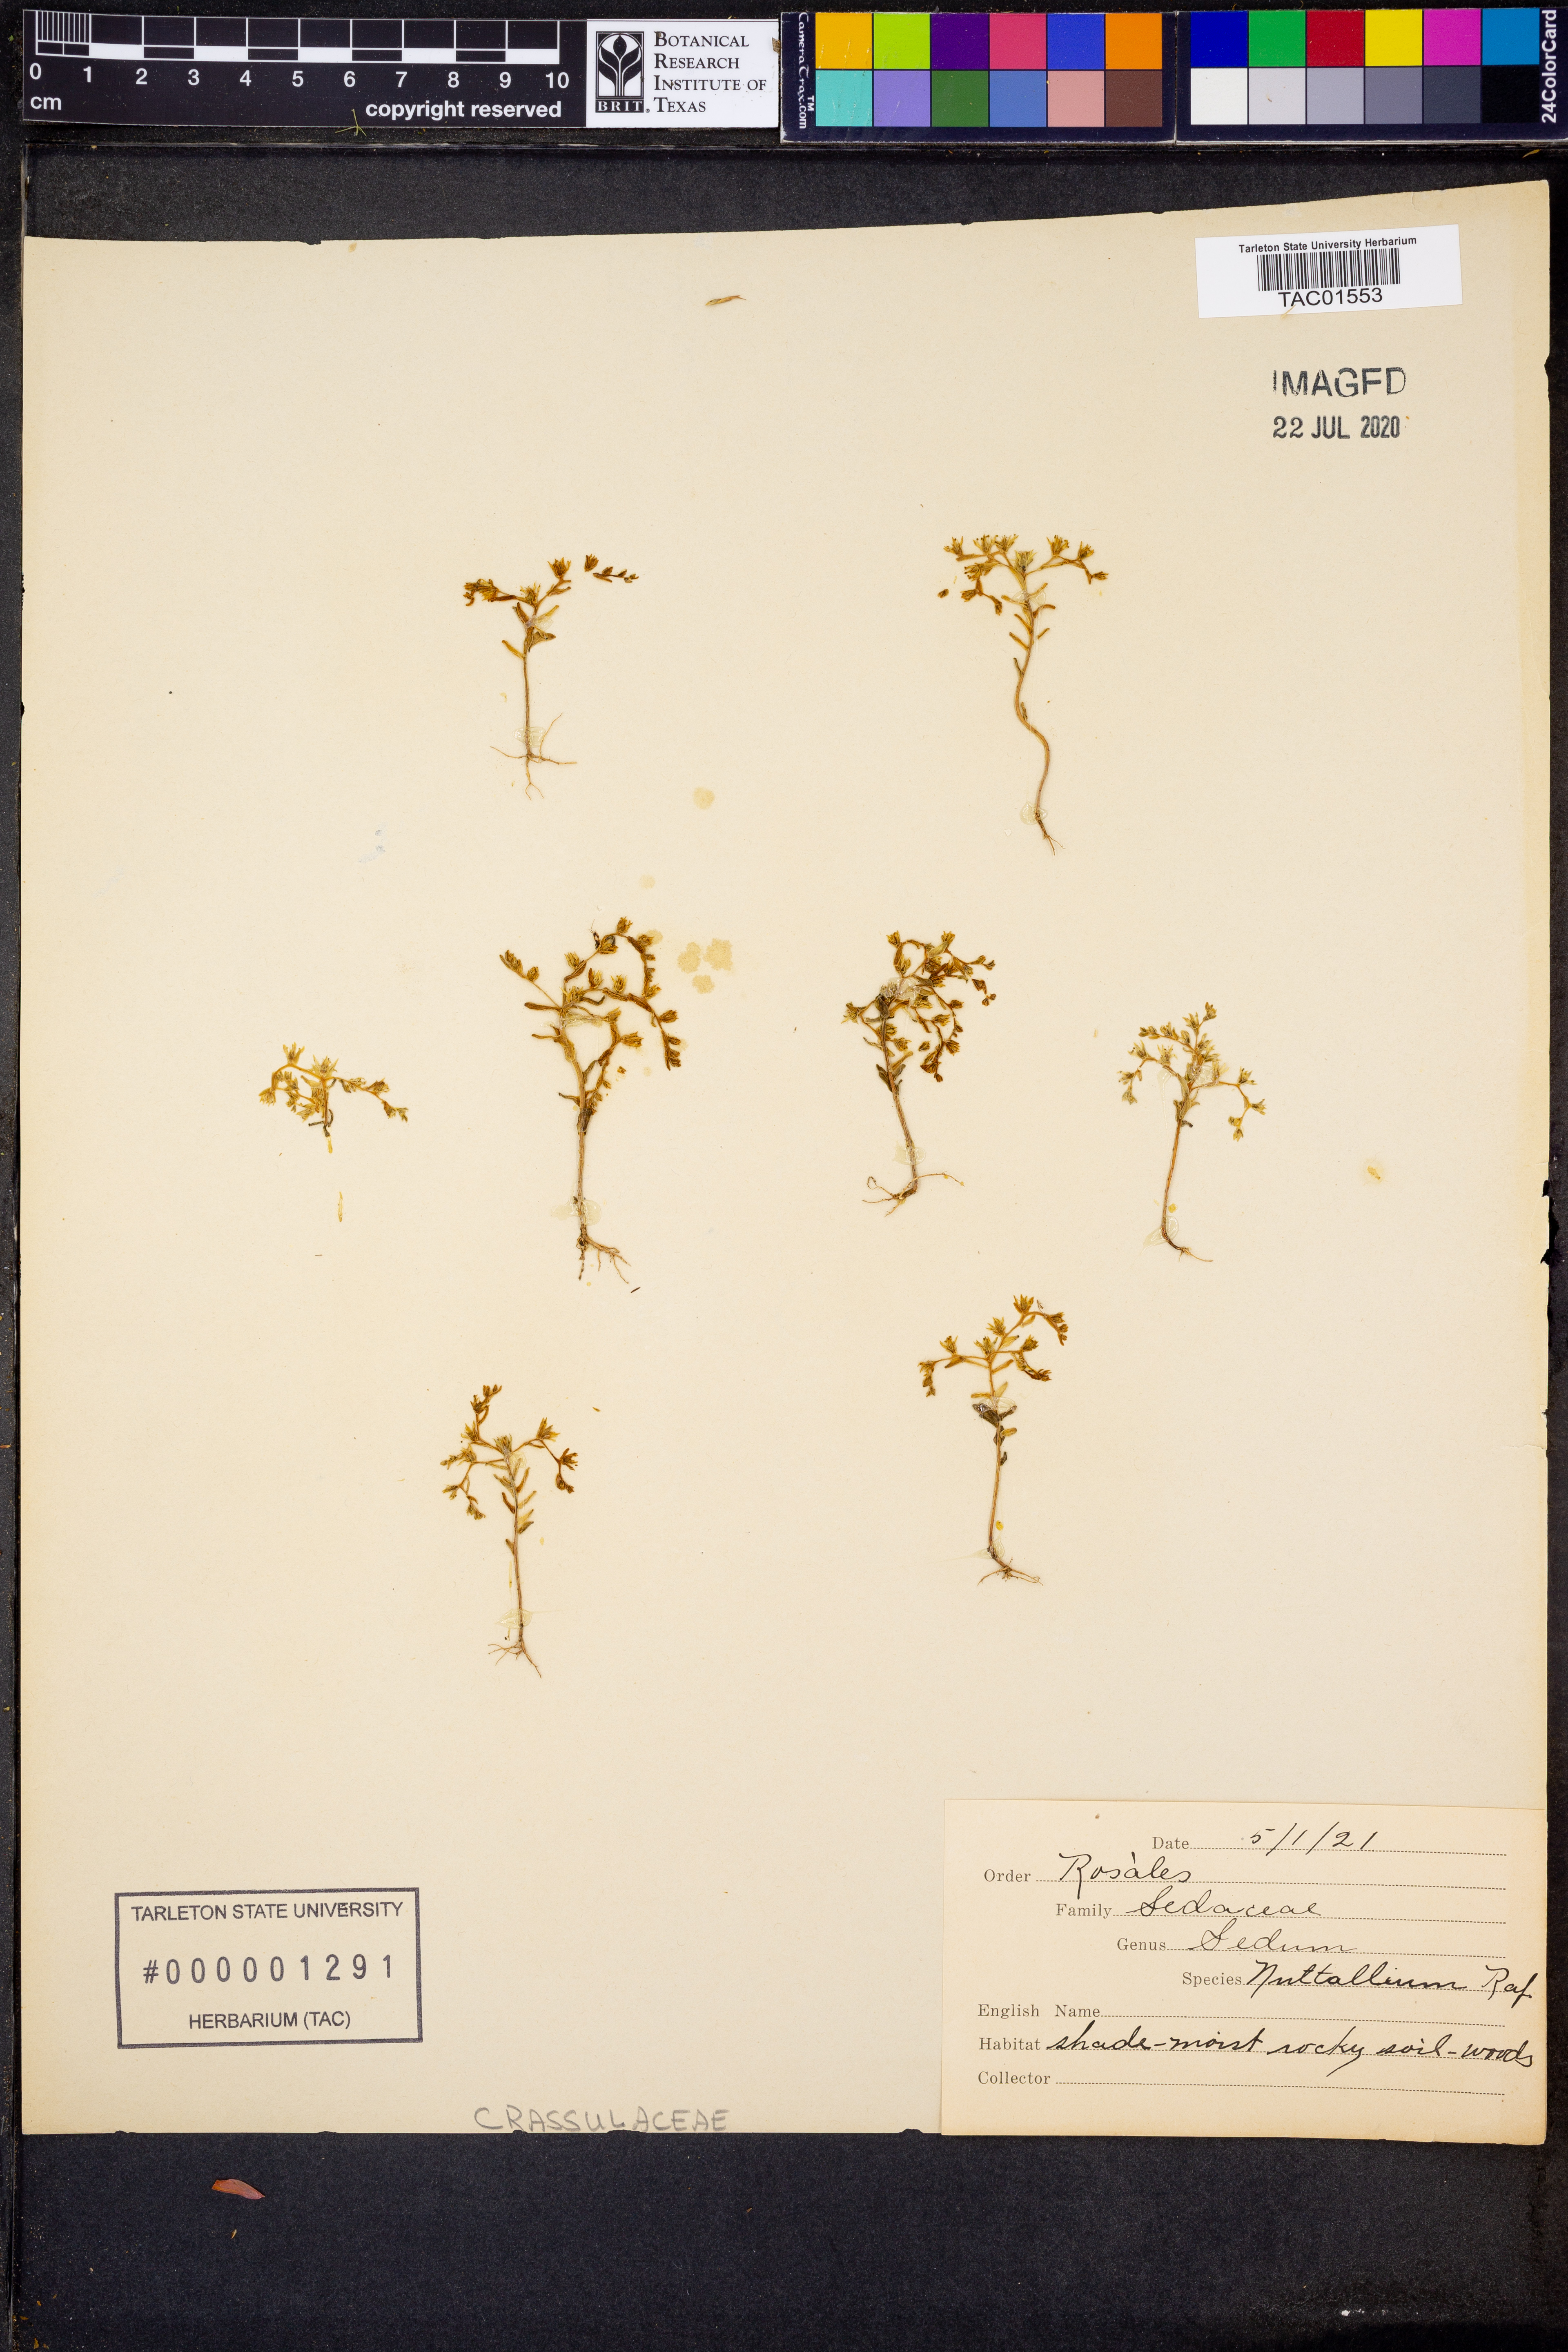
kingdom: Plantae
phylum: Tracheophyta
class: Magnoliopsida
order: Saxifragales
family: Crassulaceae
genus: Sedum
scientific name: Sedum nuttallii
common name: Yellow stonecrop
